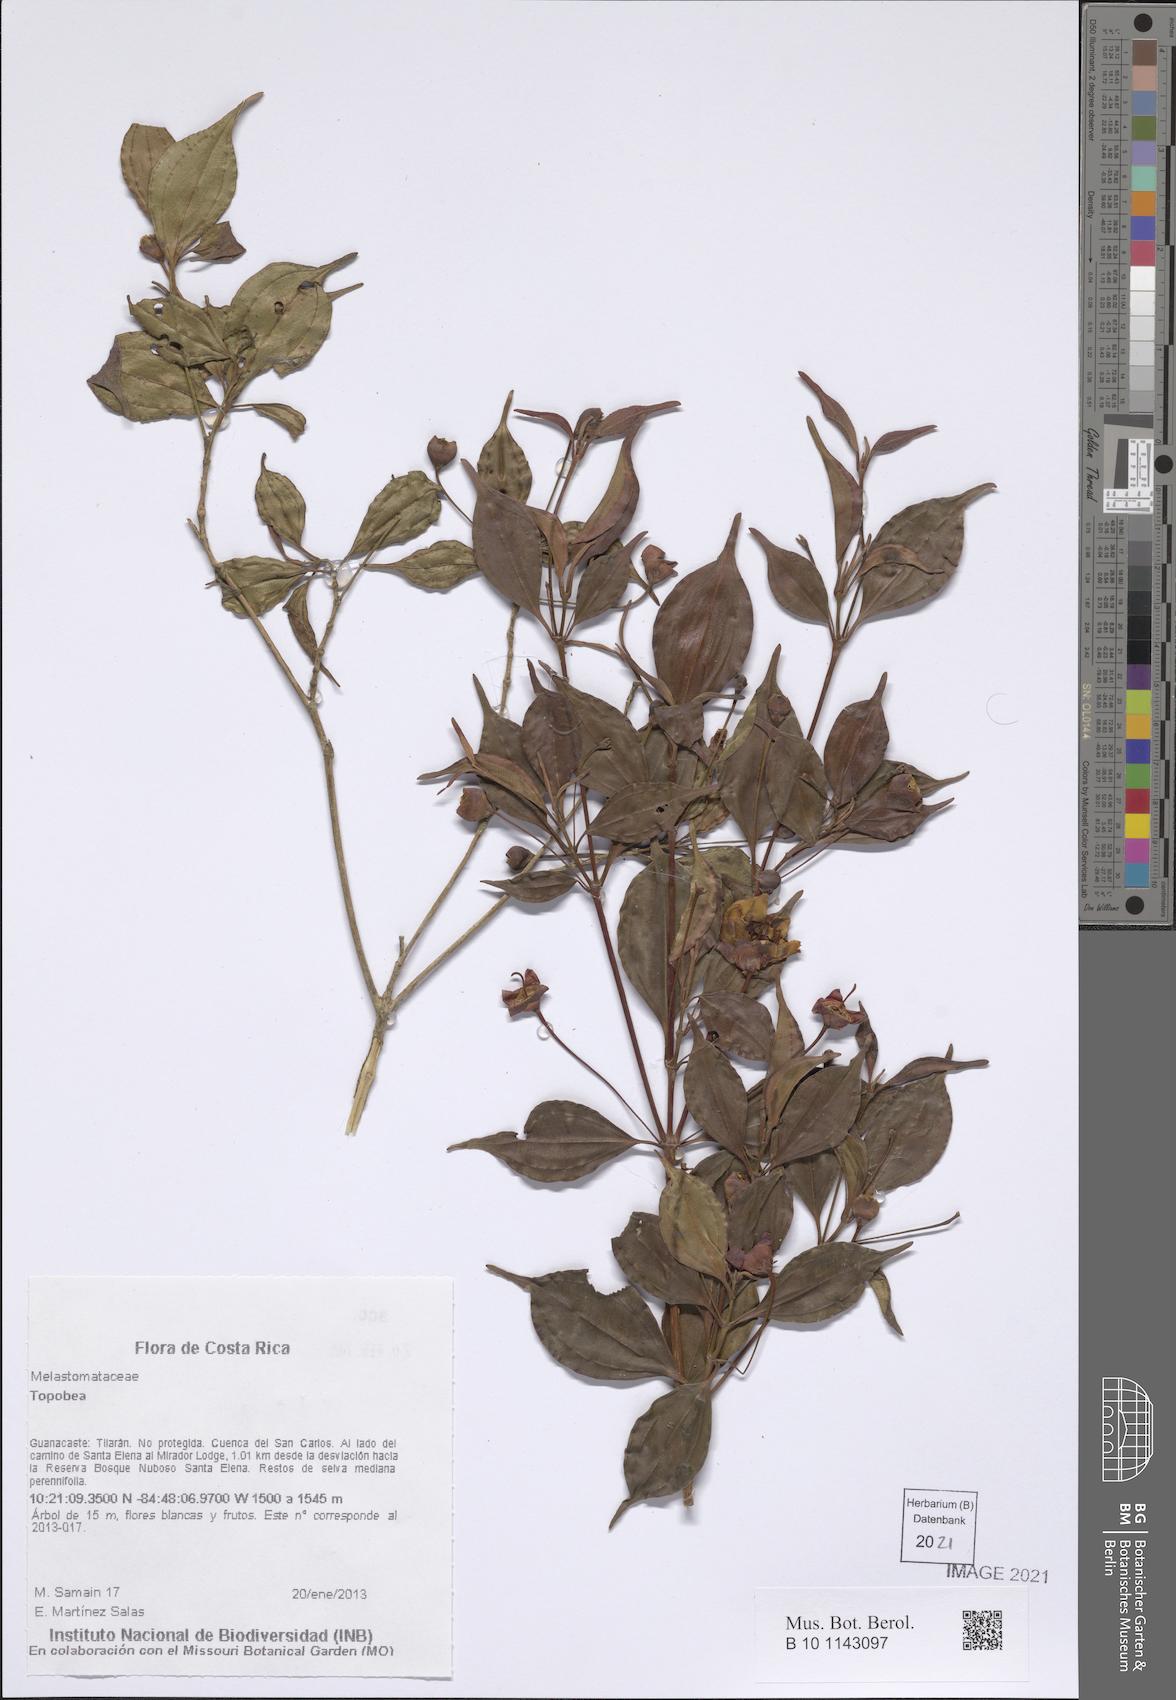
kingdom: Plantae
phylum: Tracheophyta
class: Magnoliopsida
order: Myrtales
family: Melastomataceae
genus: Blakea
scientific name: Blakea
